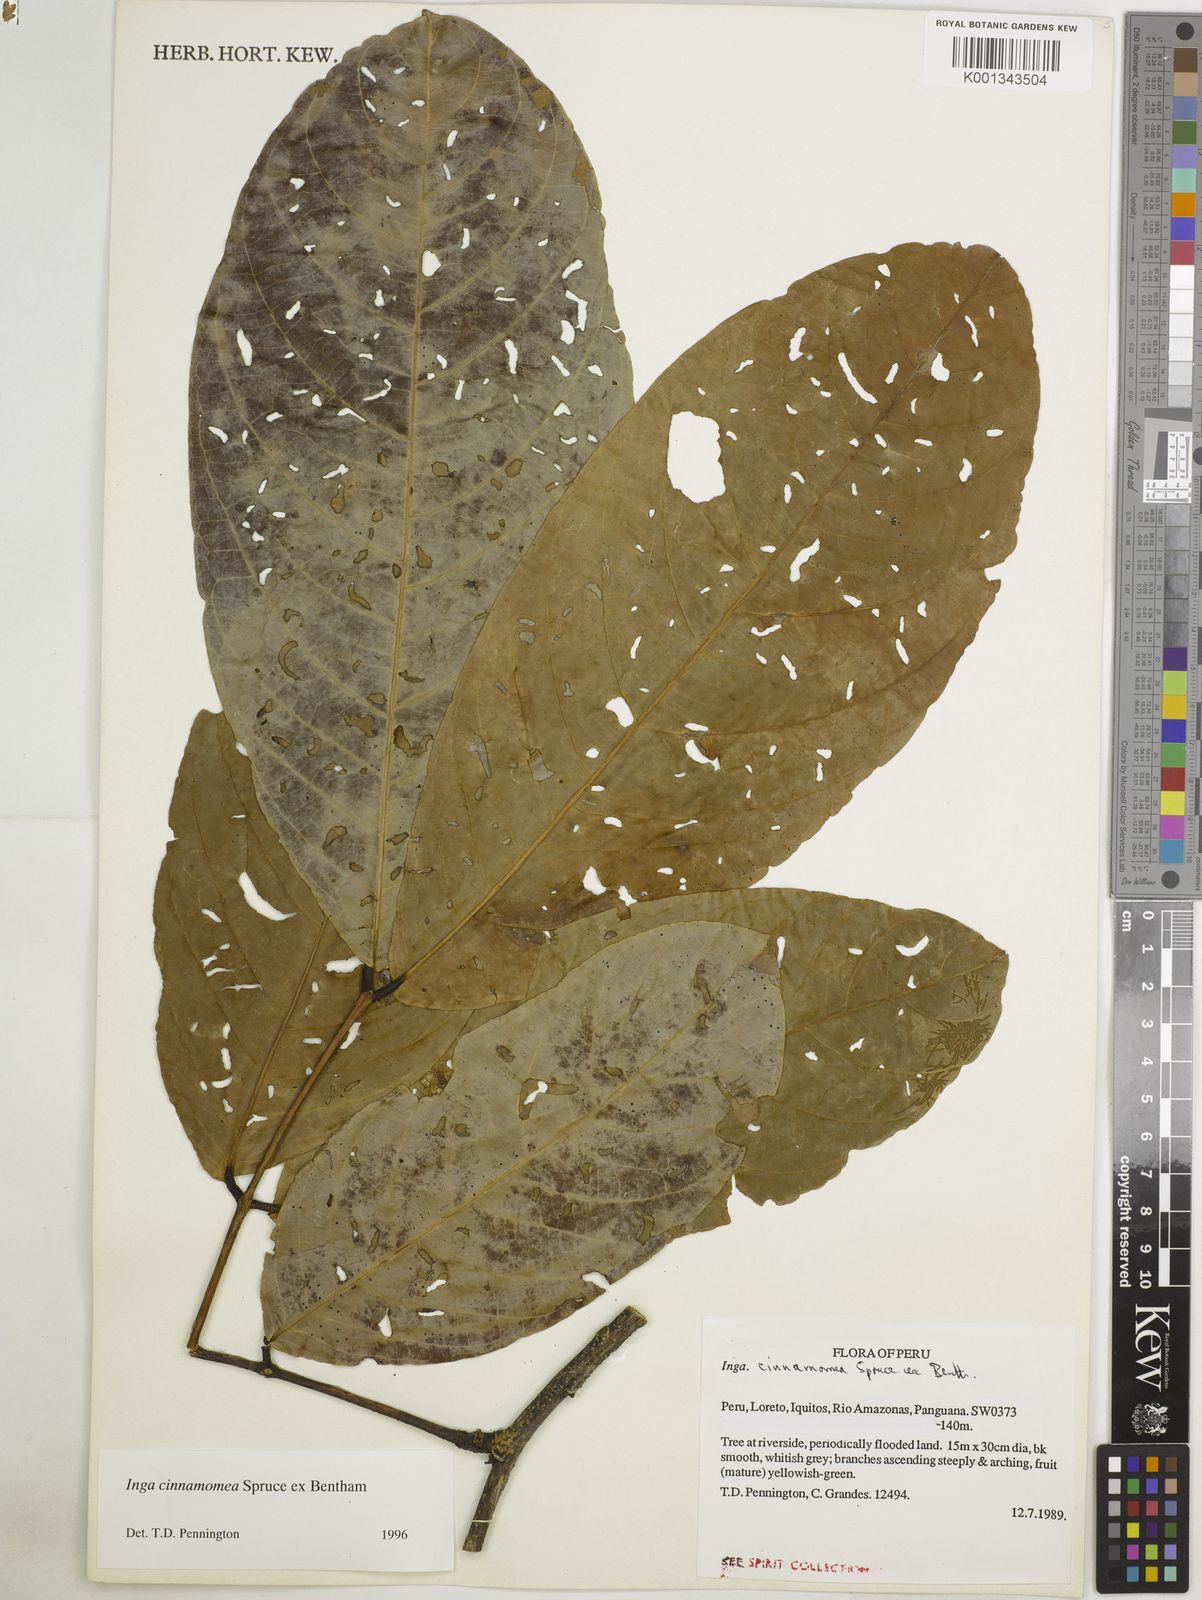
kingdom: Plantae
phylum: Tracheophyta
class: Magnoliopsida
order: Fabales
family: Fabaceae
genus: Inga
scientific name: Inga cinnamomea
